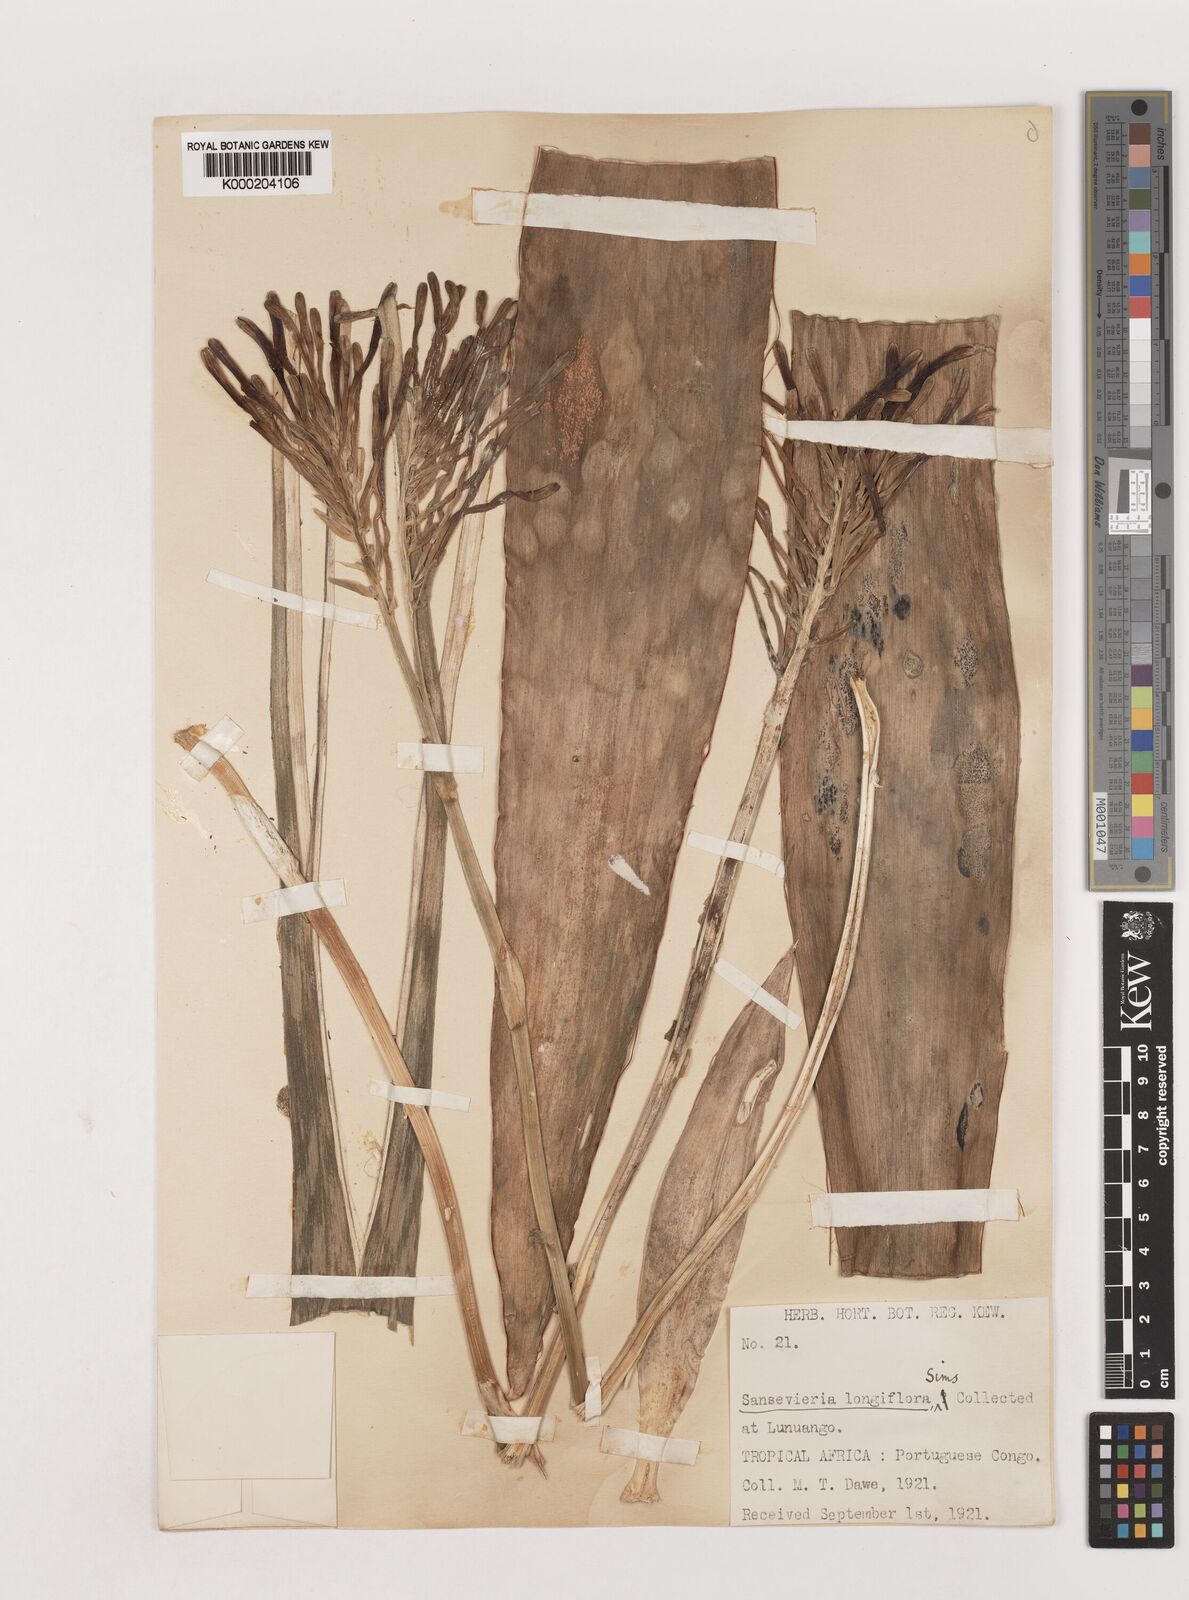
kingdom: Plantae
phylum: Tracheophyta
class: Liliopsida
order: Asparagales
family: Asparagaceae
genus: Dracaena
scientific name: Dracaena longiflora
